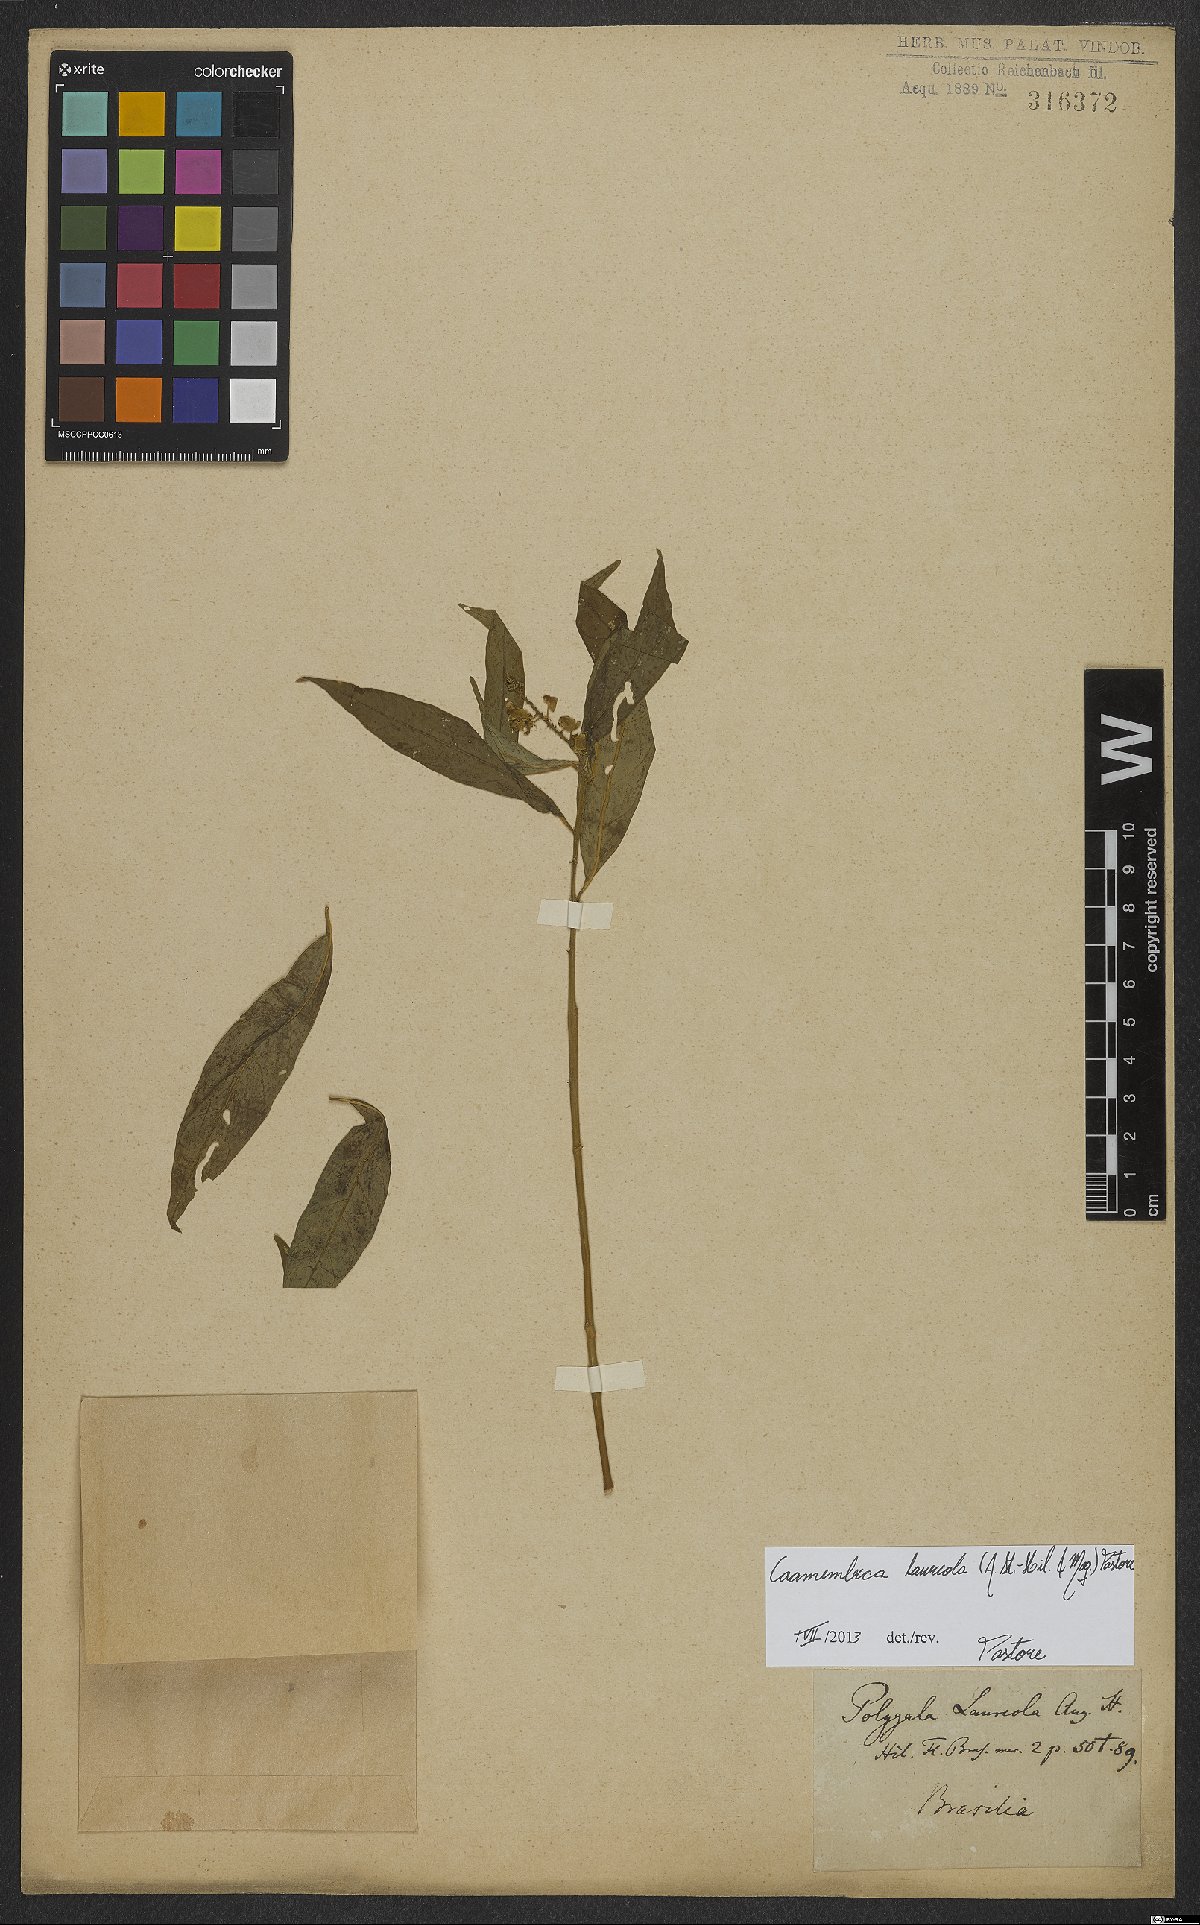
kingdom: Plantae
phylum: Tracheophyta
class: Magnoliopsida
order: Fabales
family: Polygalaceae
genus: Caamembeca
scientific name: Caamembeca salicifolia
